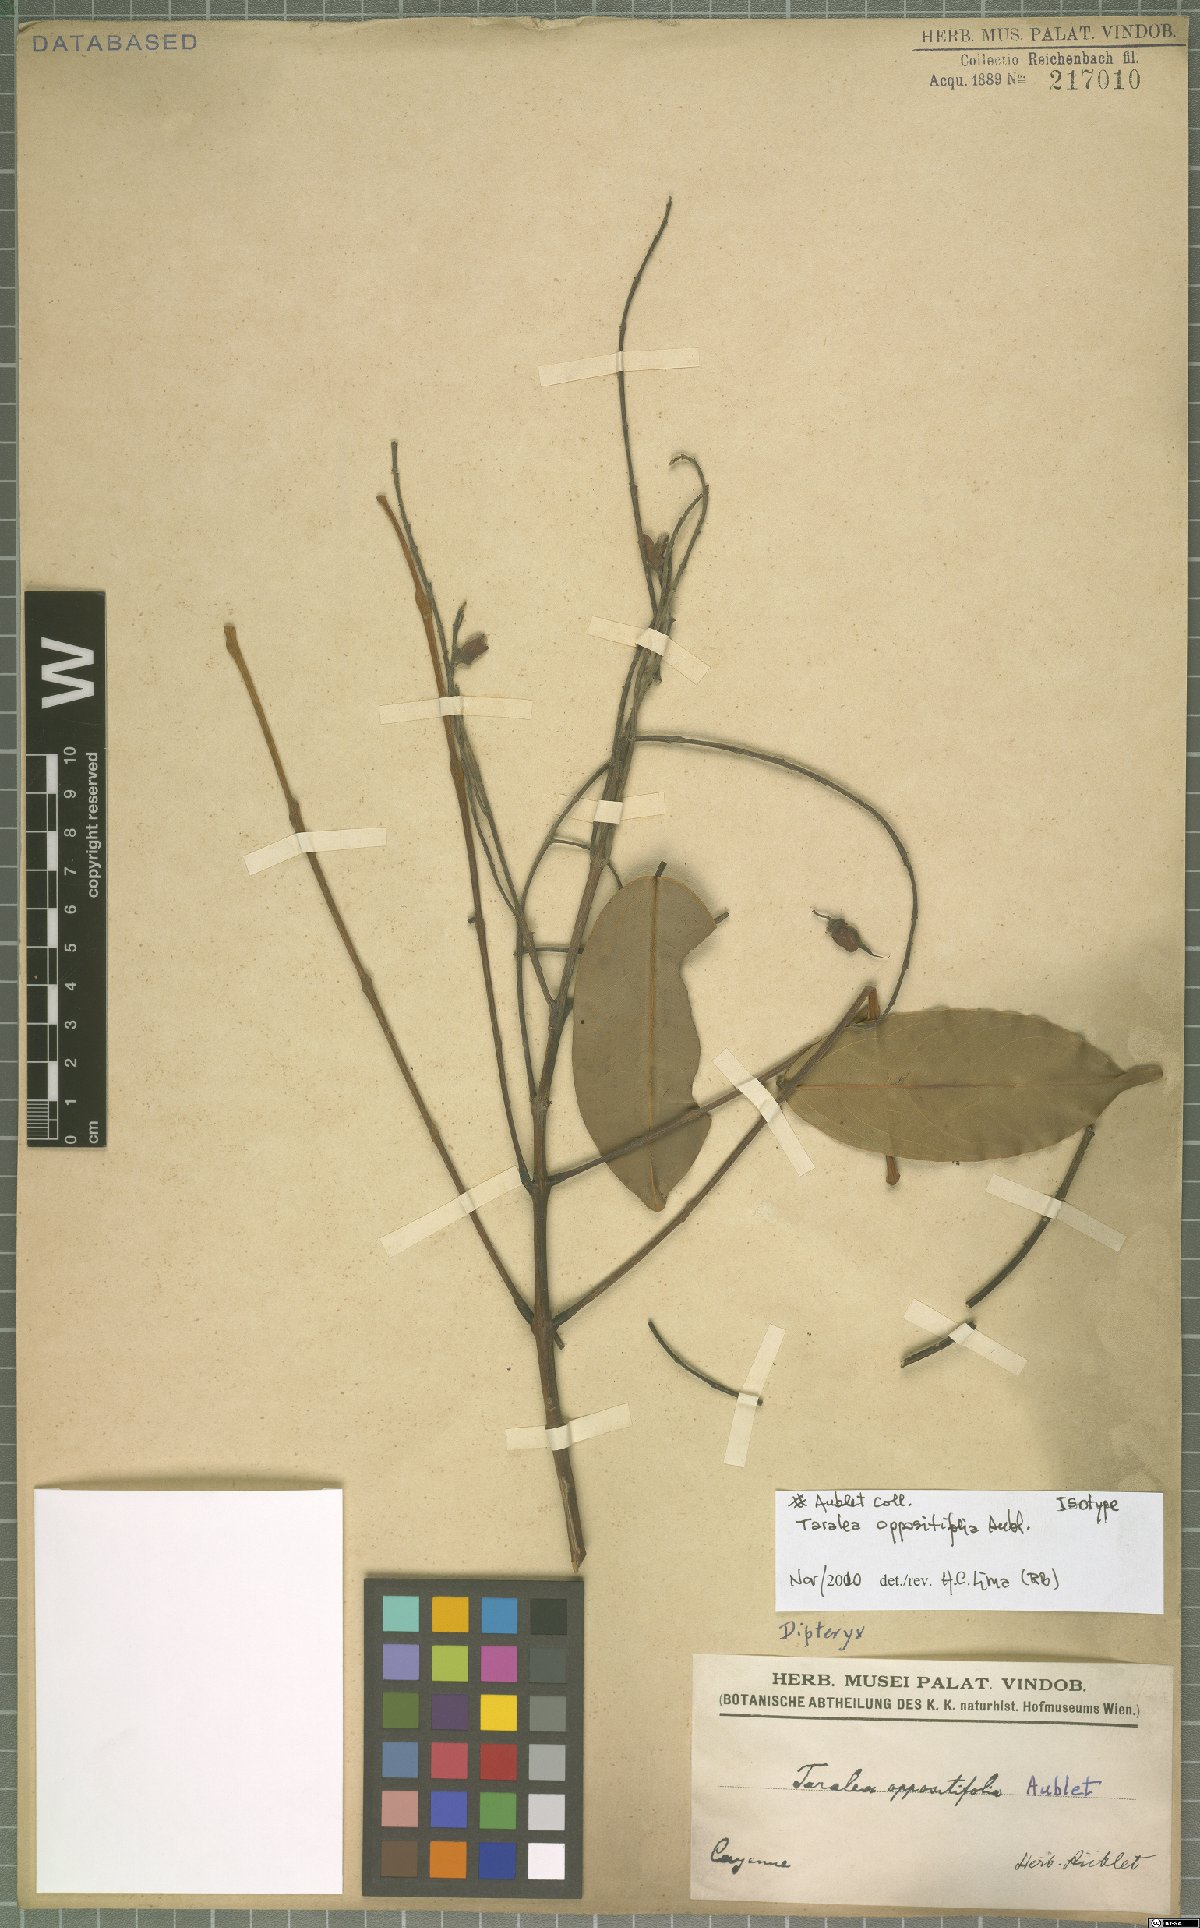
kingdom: Plantae
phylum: Tracheophyta
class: Magnoliopsida
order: Fabales
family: Fabaceae
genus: Taralea
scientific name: Taralea oppositifolia
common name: Tonka
